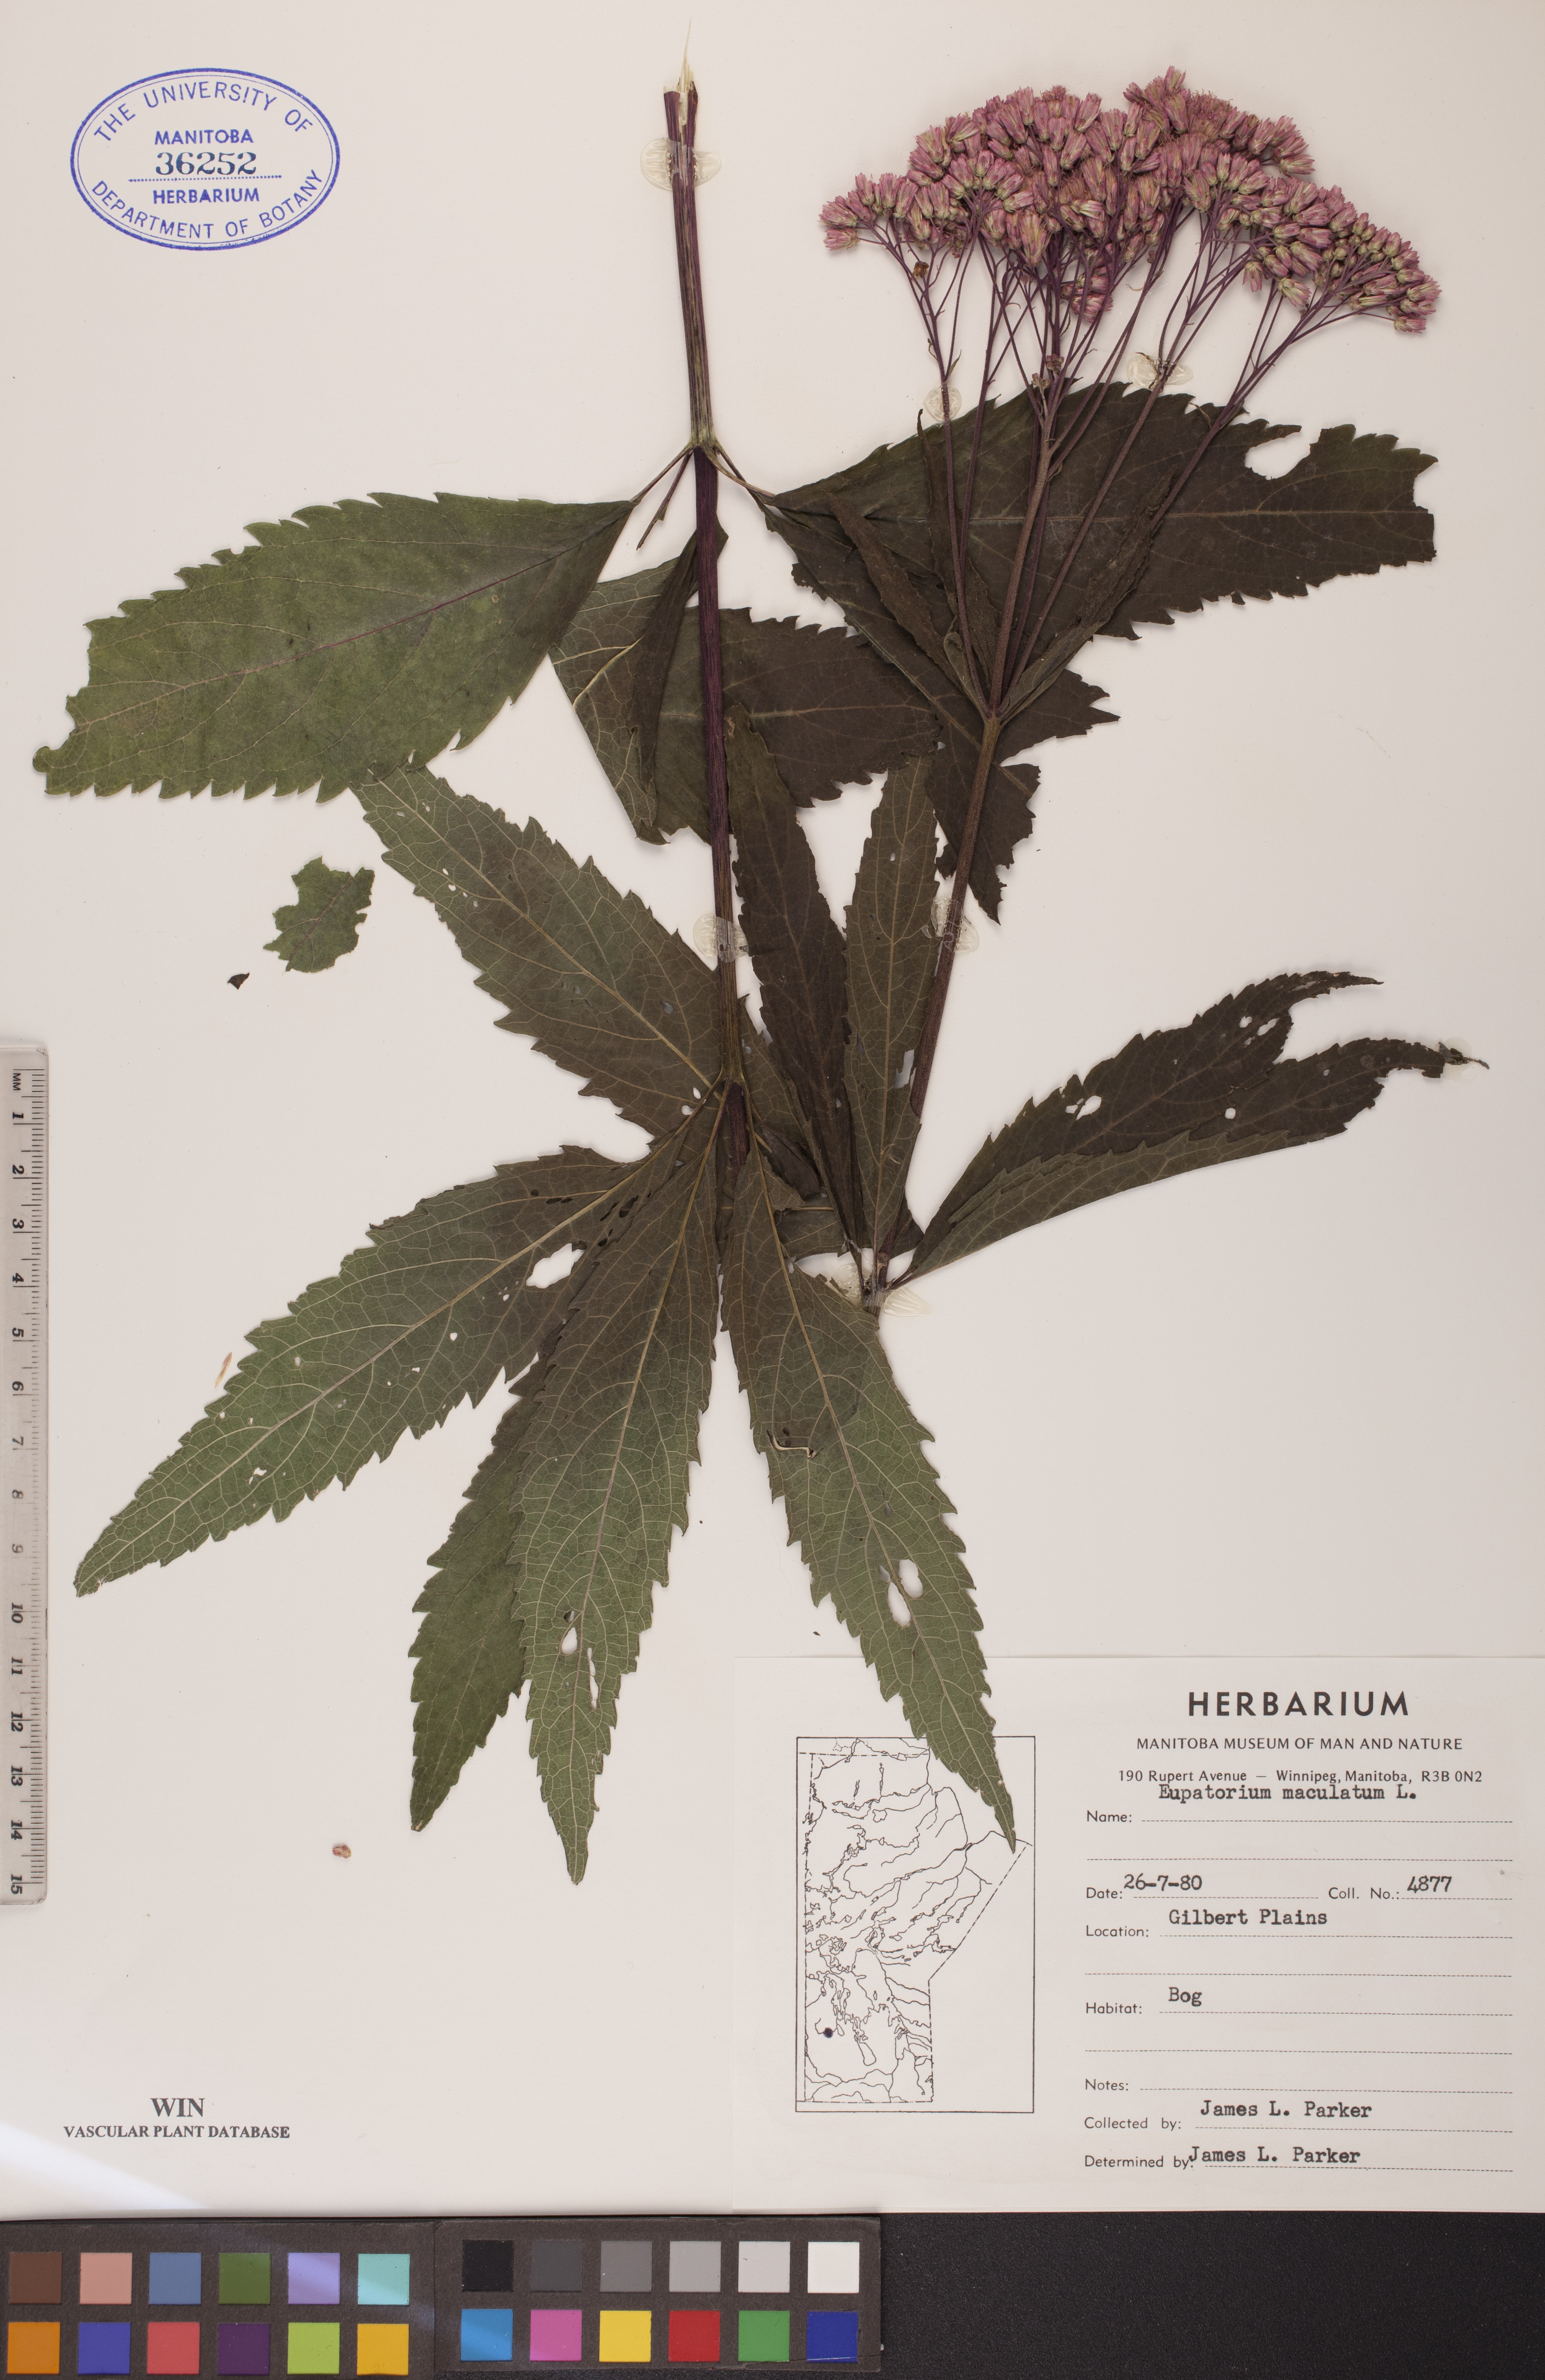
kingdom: Plantae
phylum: Tracheophyta
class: Magnoliopsida
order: Asterales
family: Asteraceae
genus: Eutrochium
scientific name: Eutrochium maculatum
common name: Spotted joe pye weed
